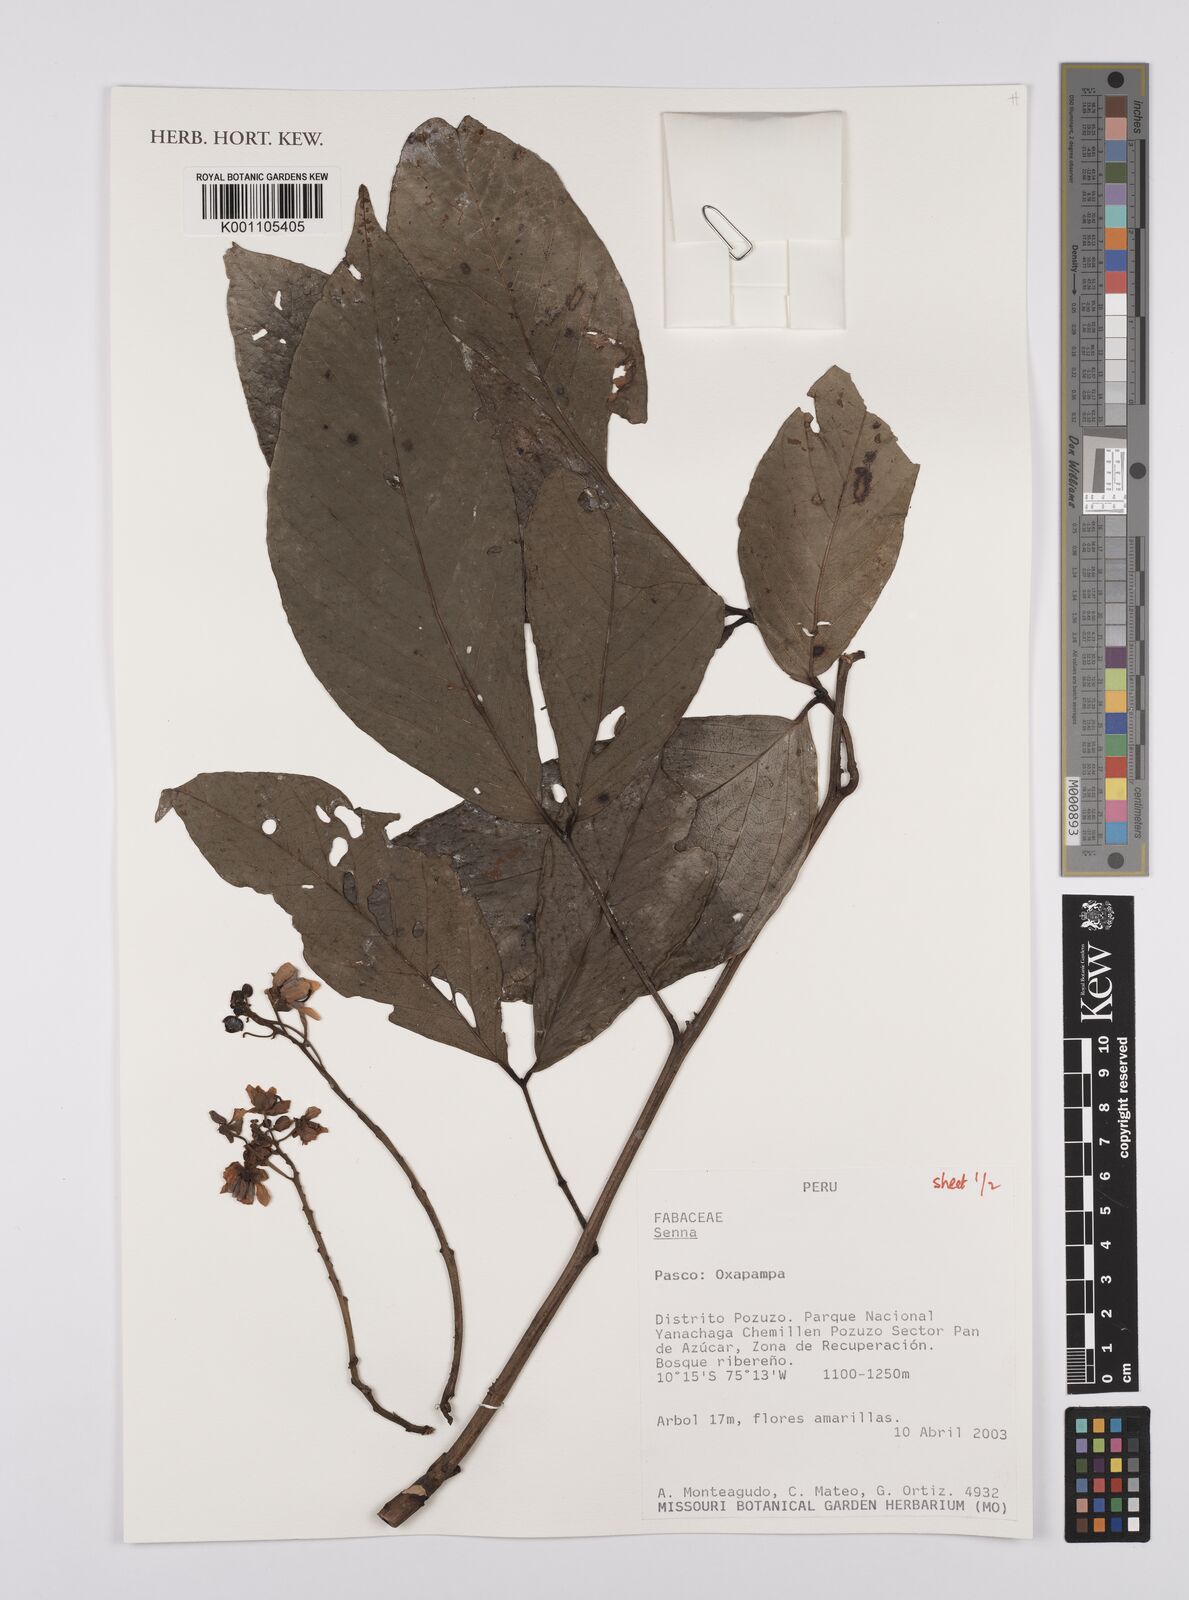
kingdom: Plantae
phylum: Tracheophyta
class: Magnoliopsida
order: Fabales
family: Fabaceae
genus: Senna
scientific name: Senna
